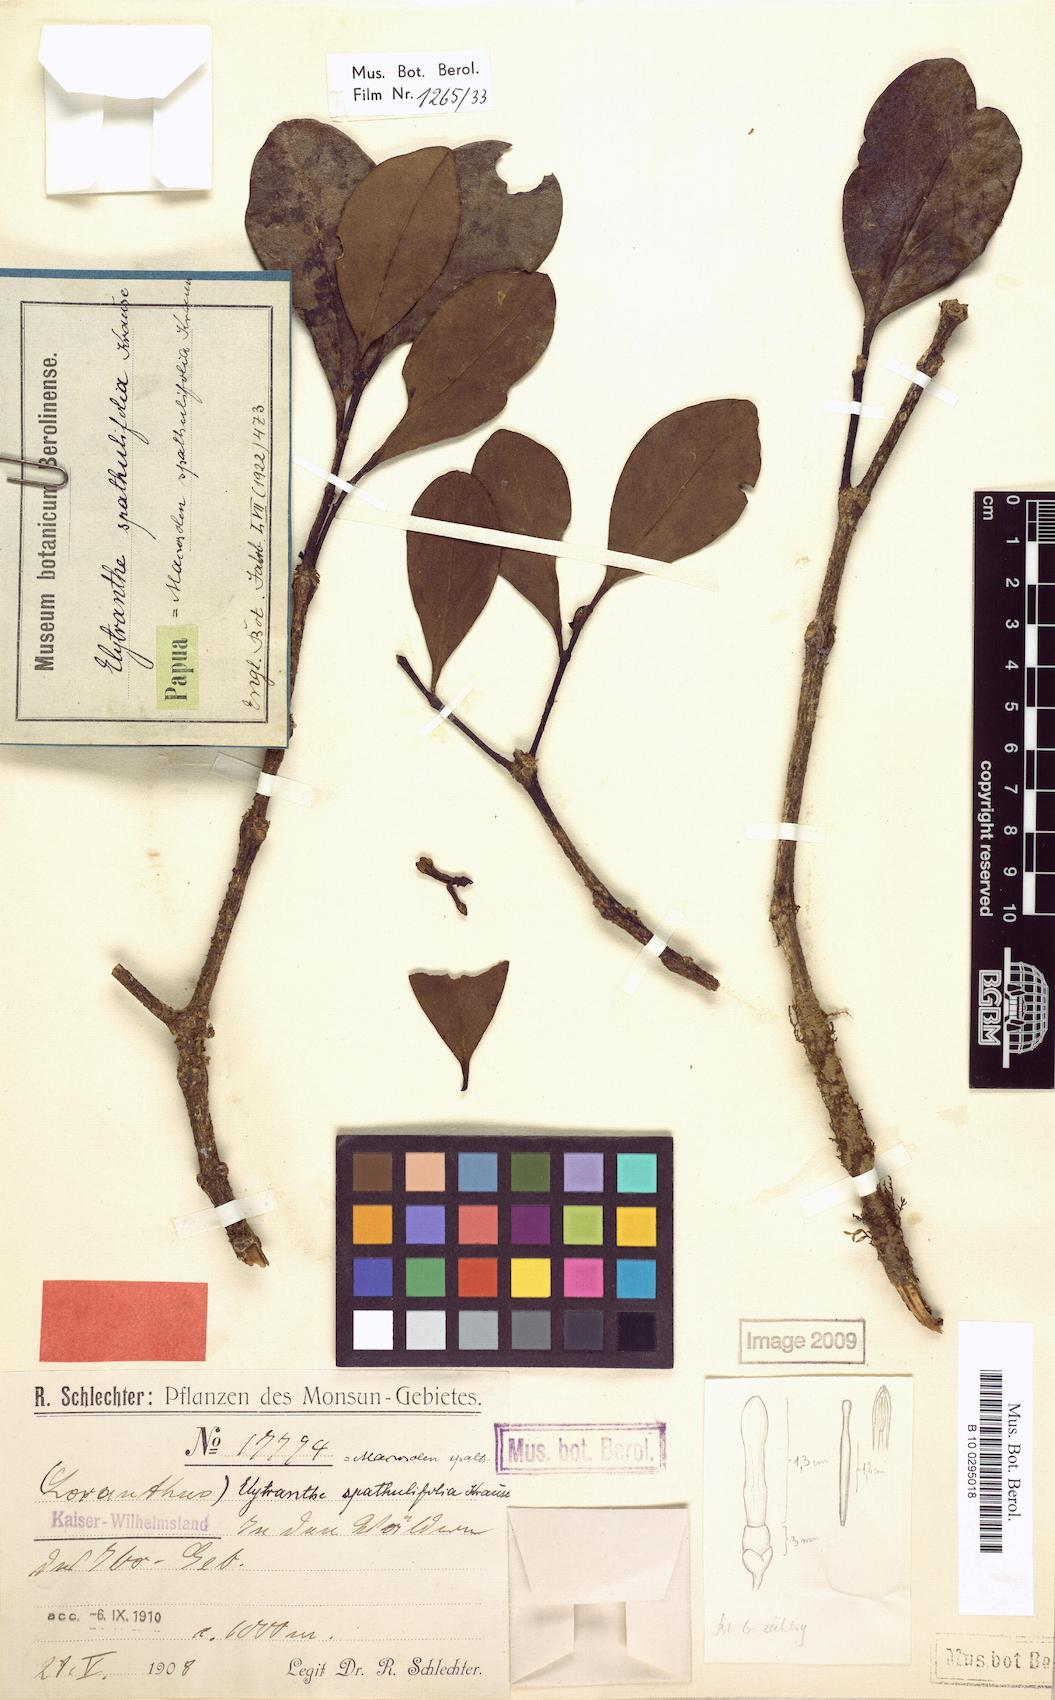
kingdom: Plantae
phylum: Tracheophyta
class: Magnoliopsida
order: Santalales
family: Loranthaceae
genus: Macrosolen
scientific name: Macrosolen cochinchinensis
